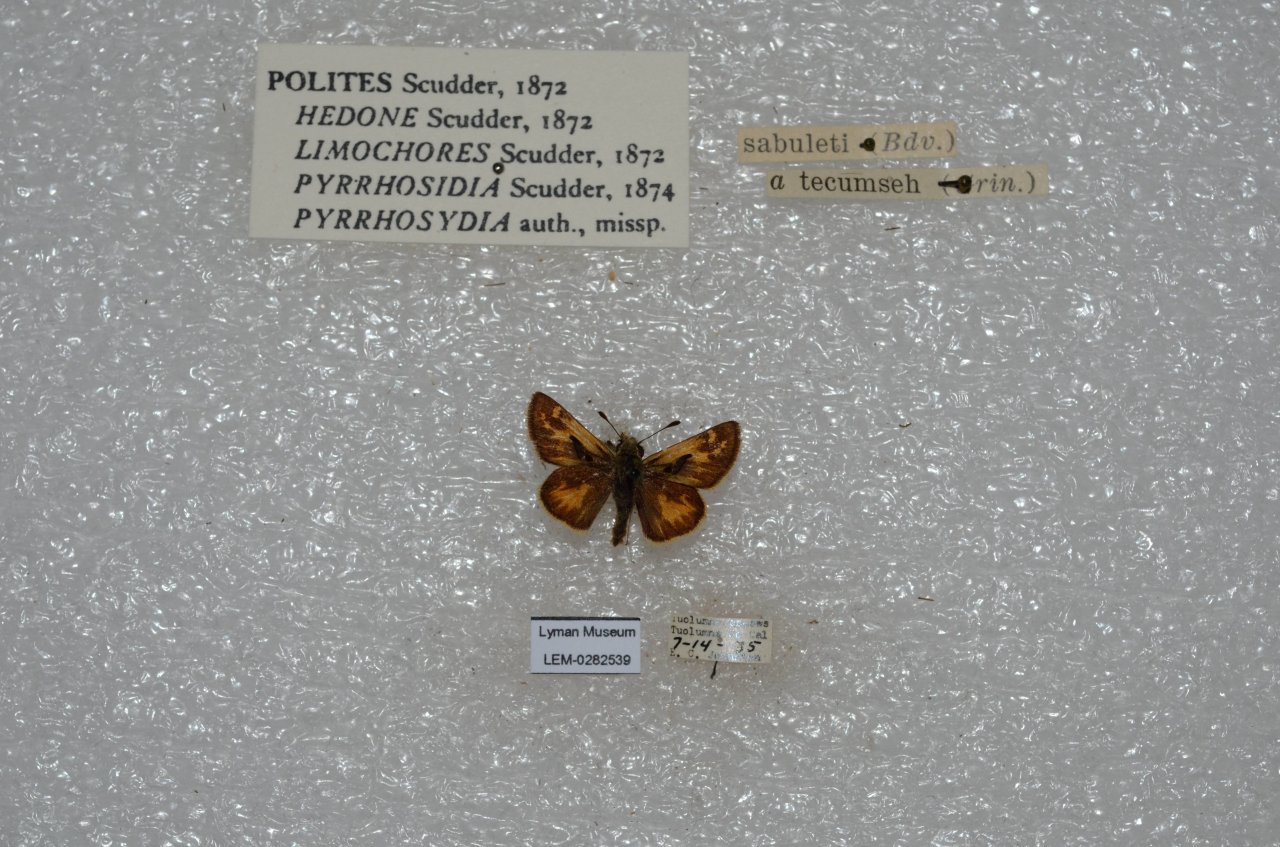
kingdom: Animalia
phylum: Arthropoda
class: Insecta
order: Lepidoptera
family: Hesperiidae
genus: Polites
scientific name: Polites sabuleti
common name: Sandhill Skipper
